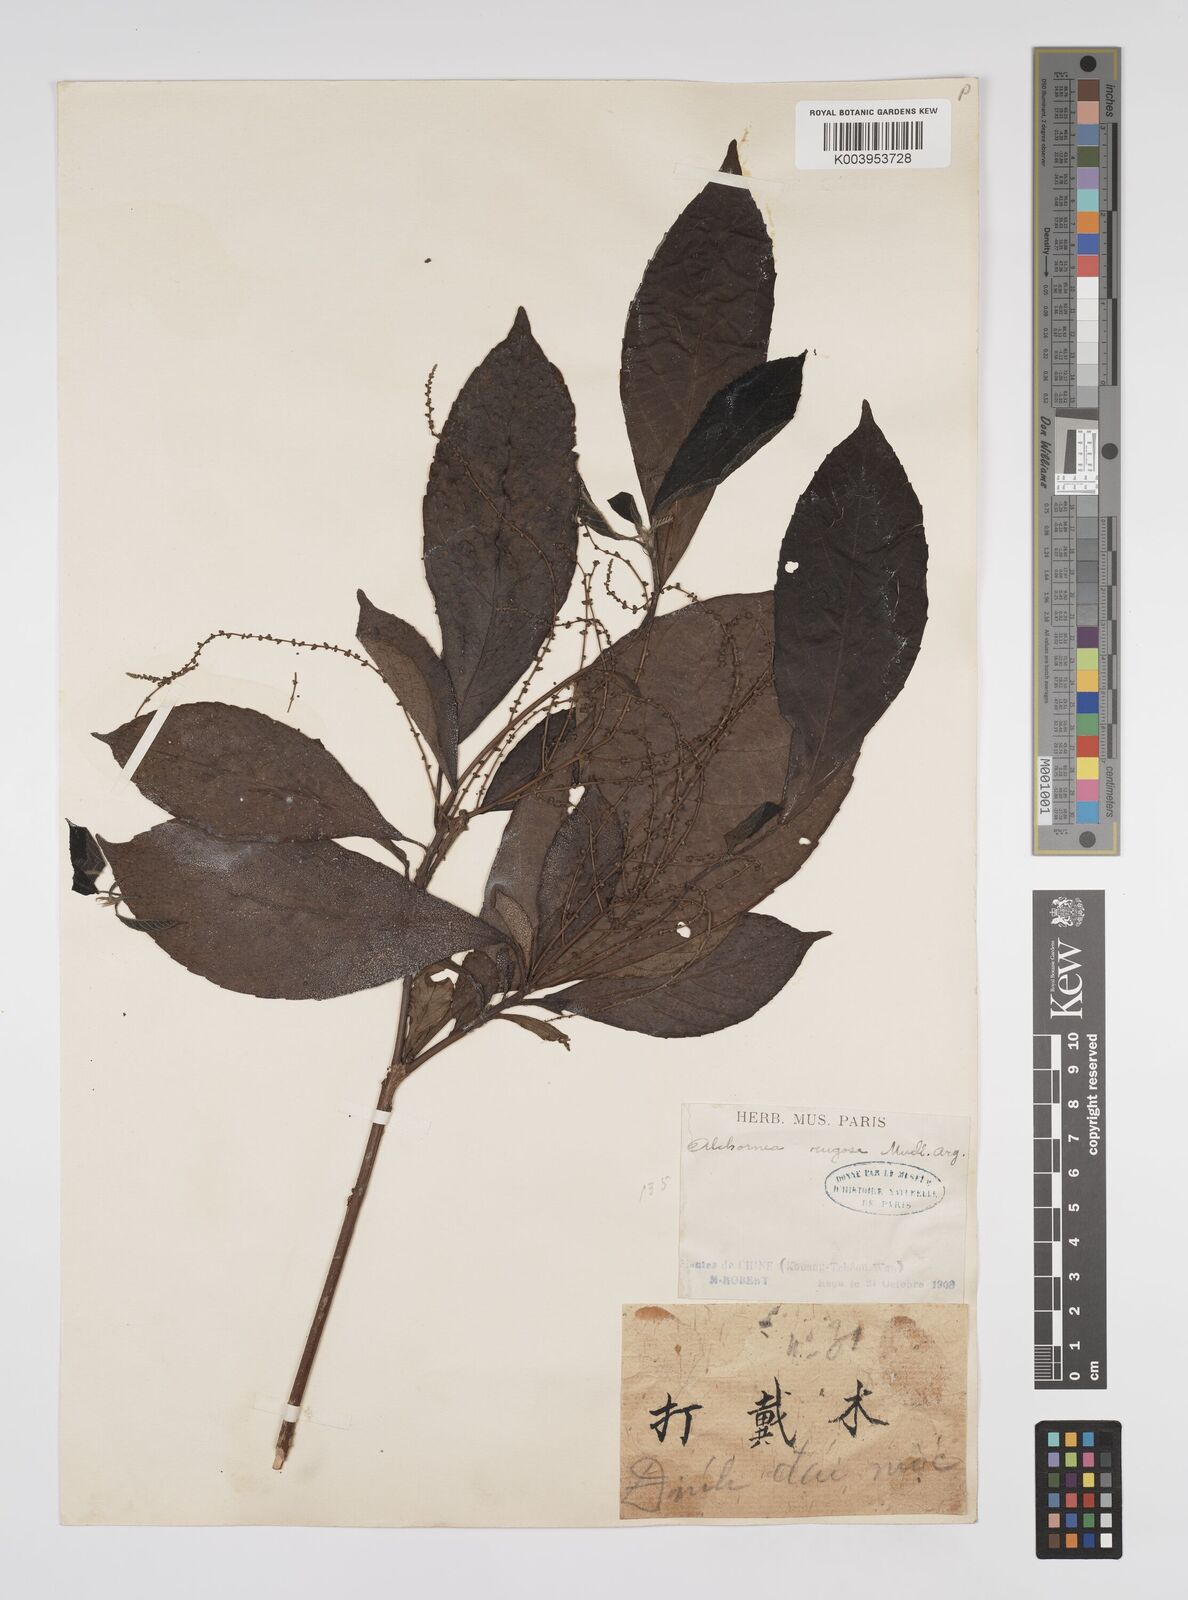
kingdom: Plantae
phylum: Tracheophyta
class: Magnoliopsida
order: Malpighiales
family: Euphorbiaceae
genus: Alchornea
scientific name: Alchornea rugosa
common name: Alchorntree
